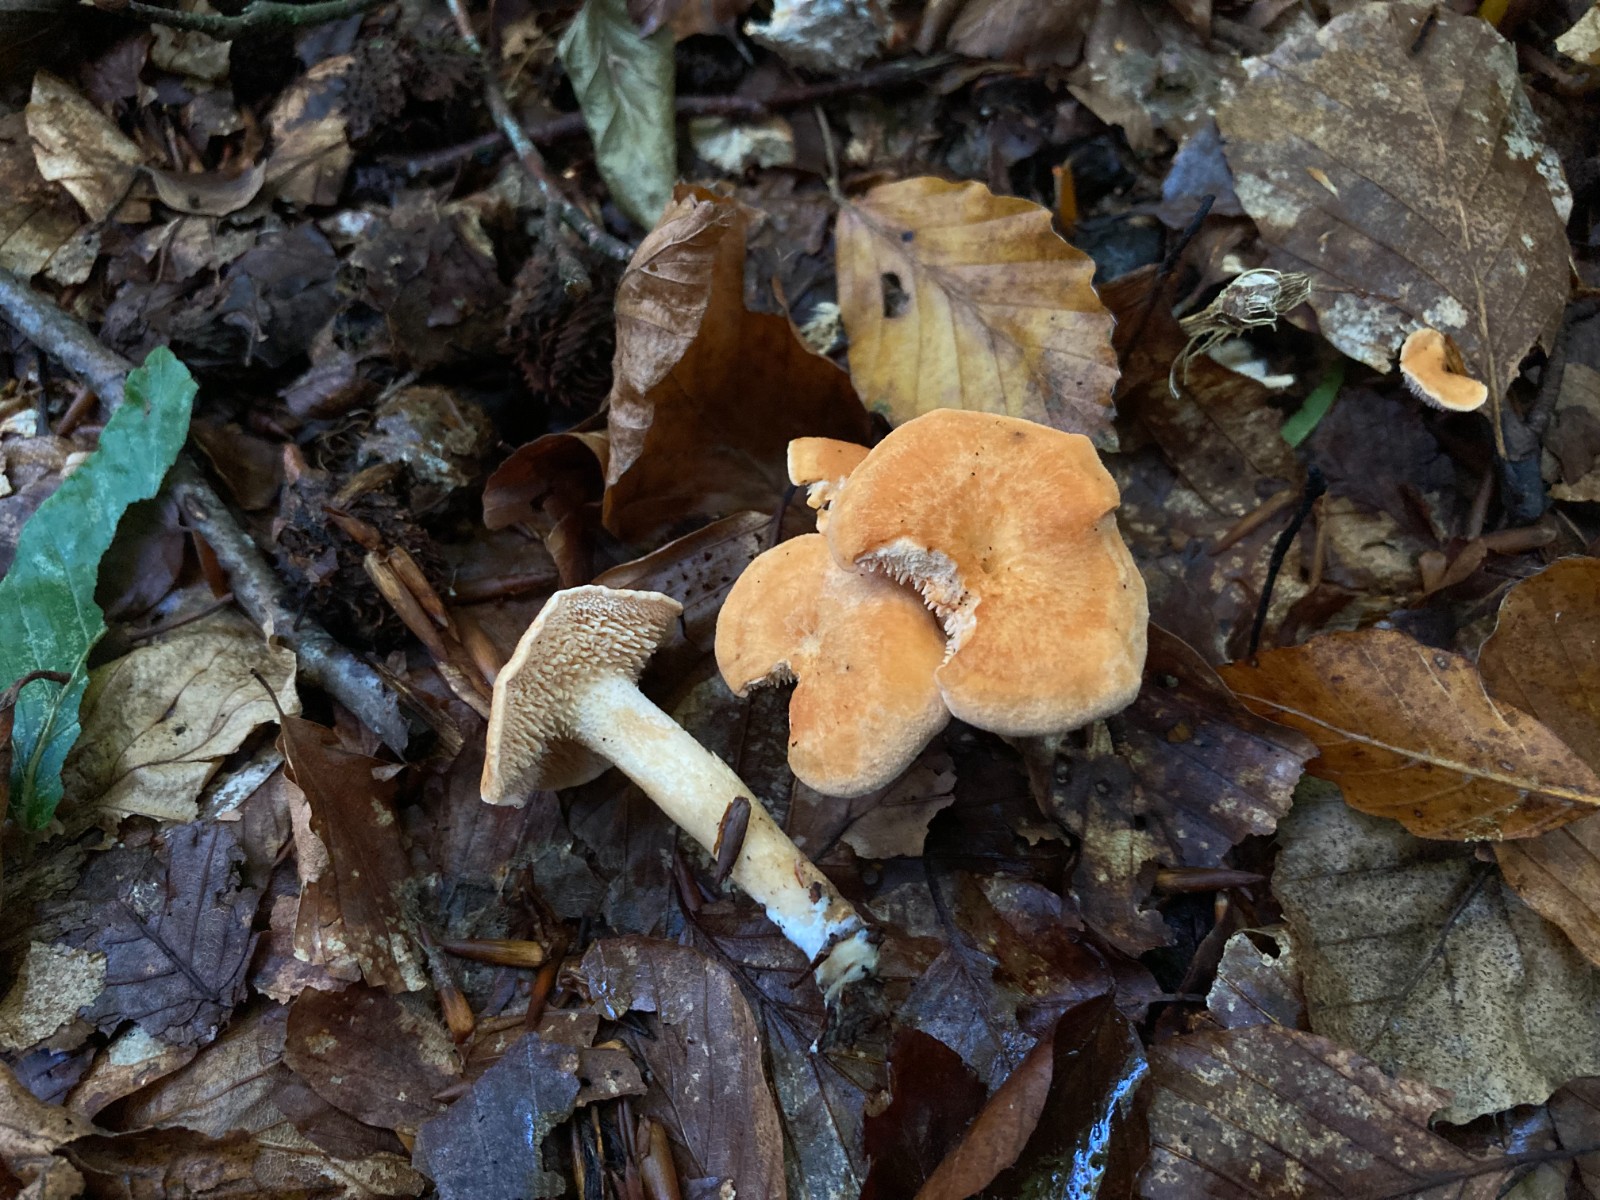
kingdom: Fungi
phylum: Basidiomycota
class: Agaricomycetes
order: Cantharellales
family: Hydnaceae
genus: Hydnum
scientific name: Hydnum
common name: pigsvamp
